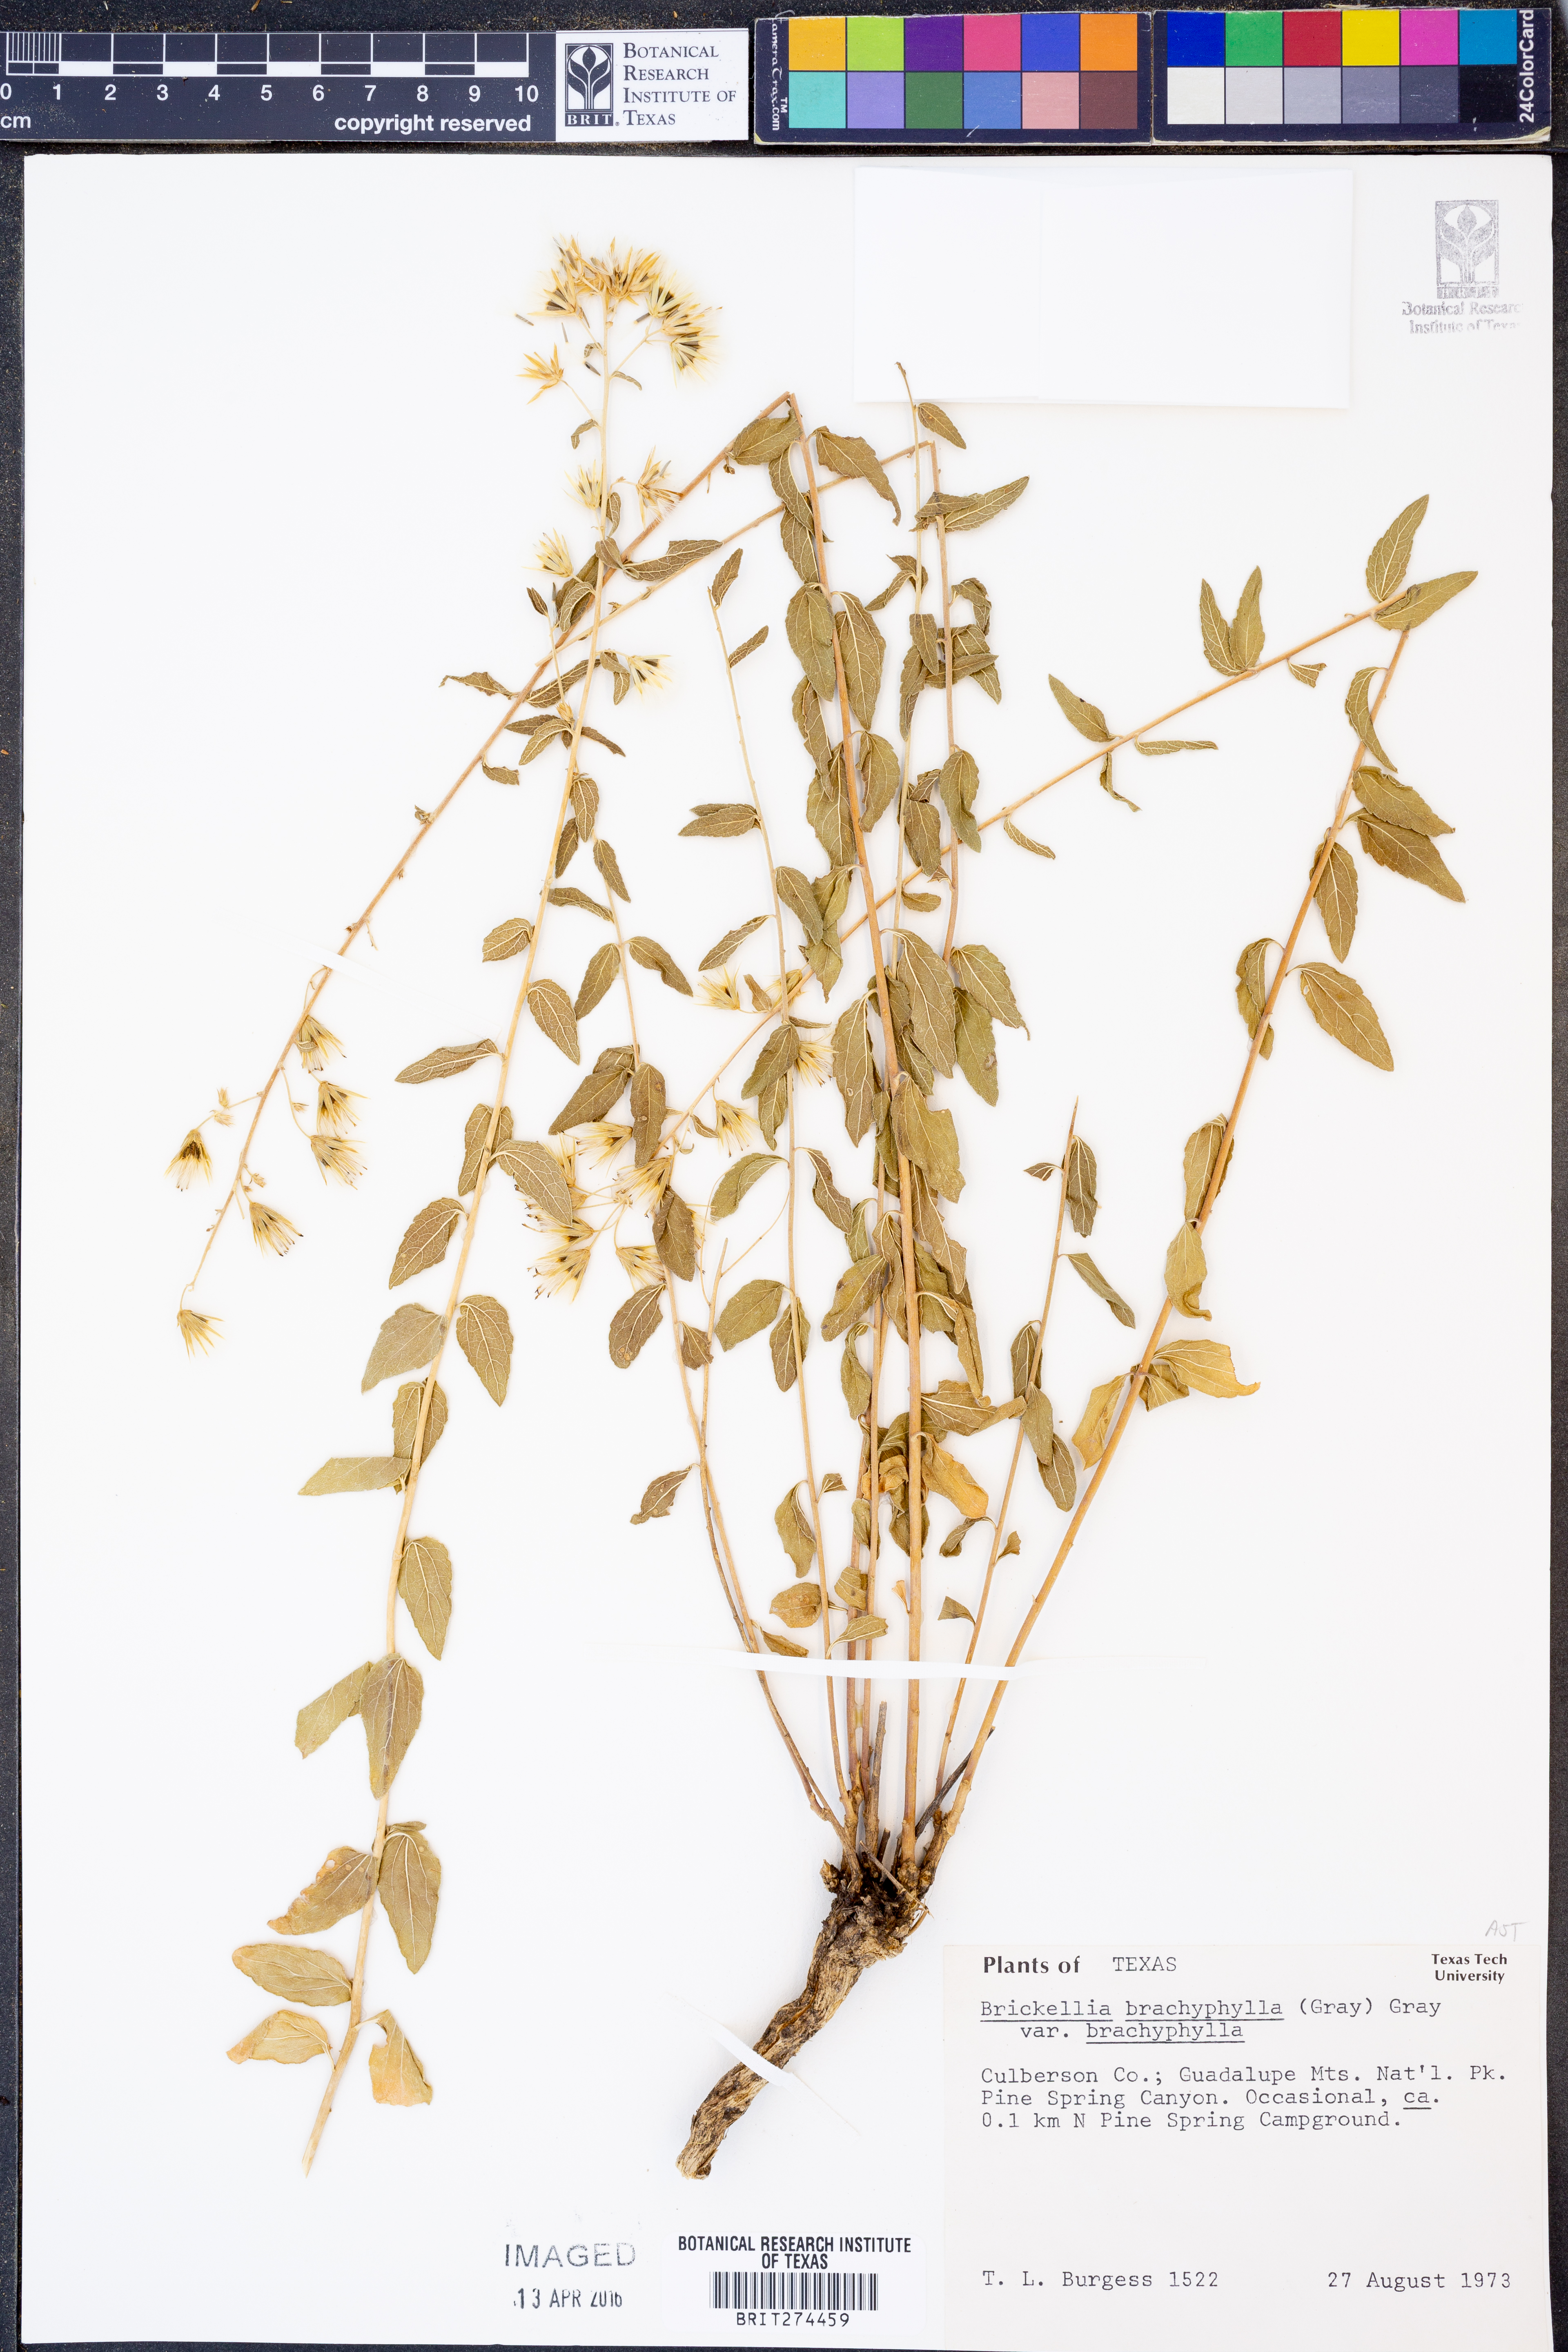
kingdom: Plantae
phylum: Tracheophyta
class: Magnoliopsida
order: Asterales
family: Asteraceae
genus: Brickellia
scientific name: Brickellia brachyphylla
